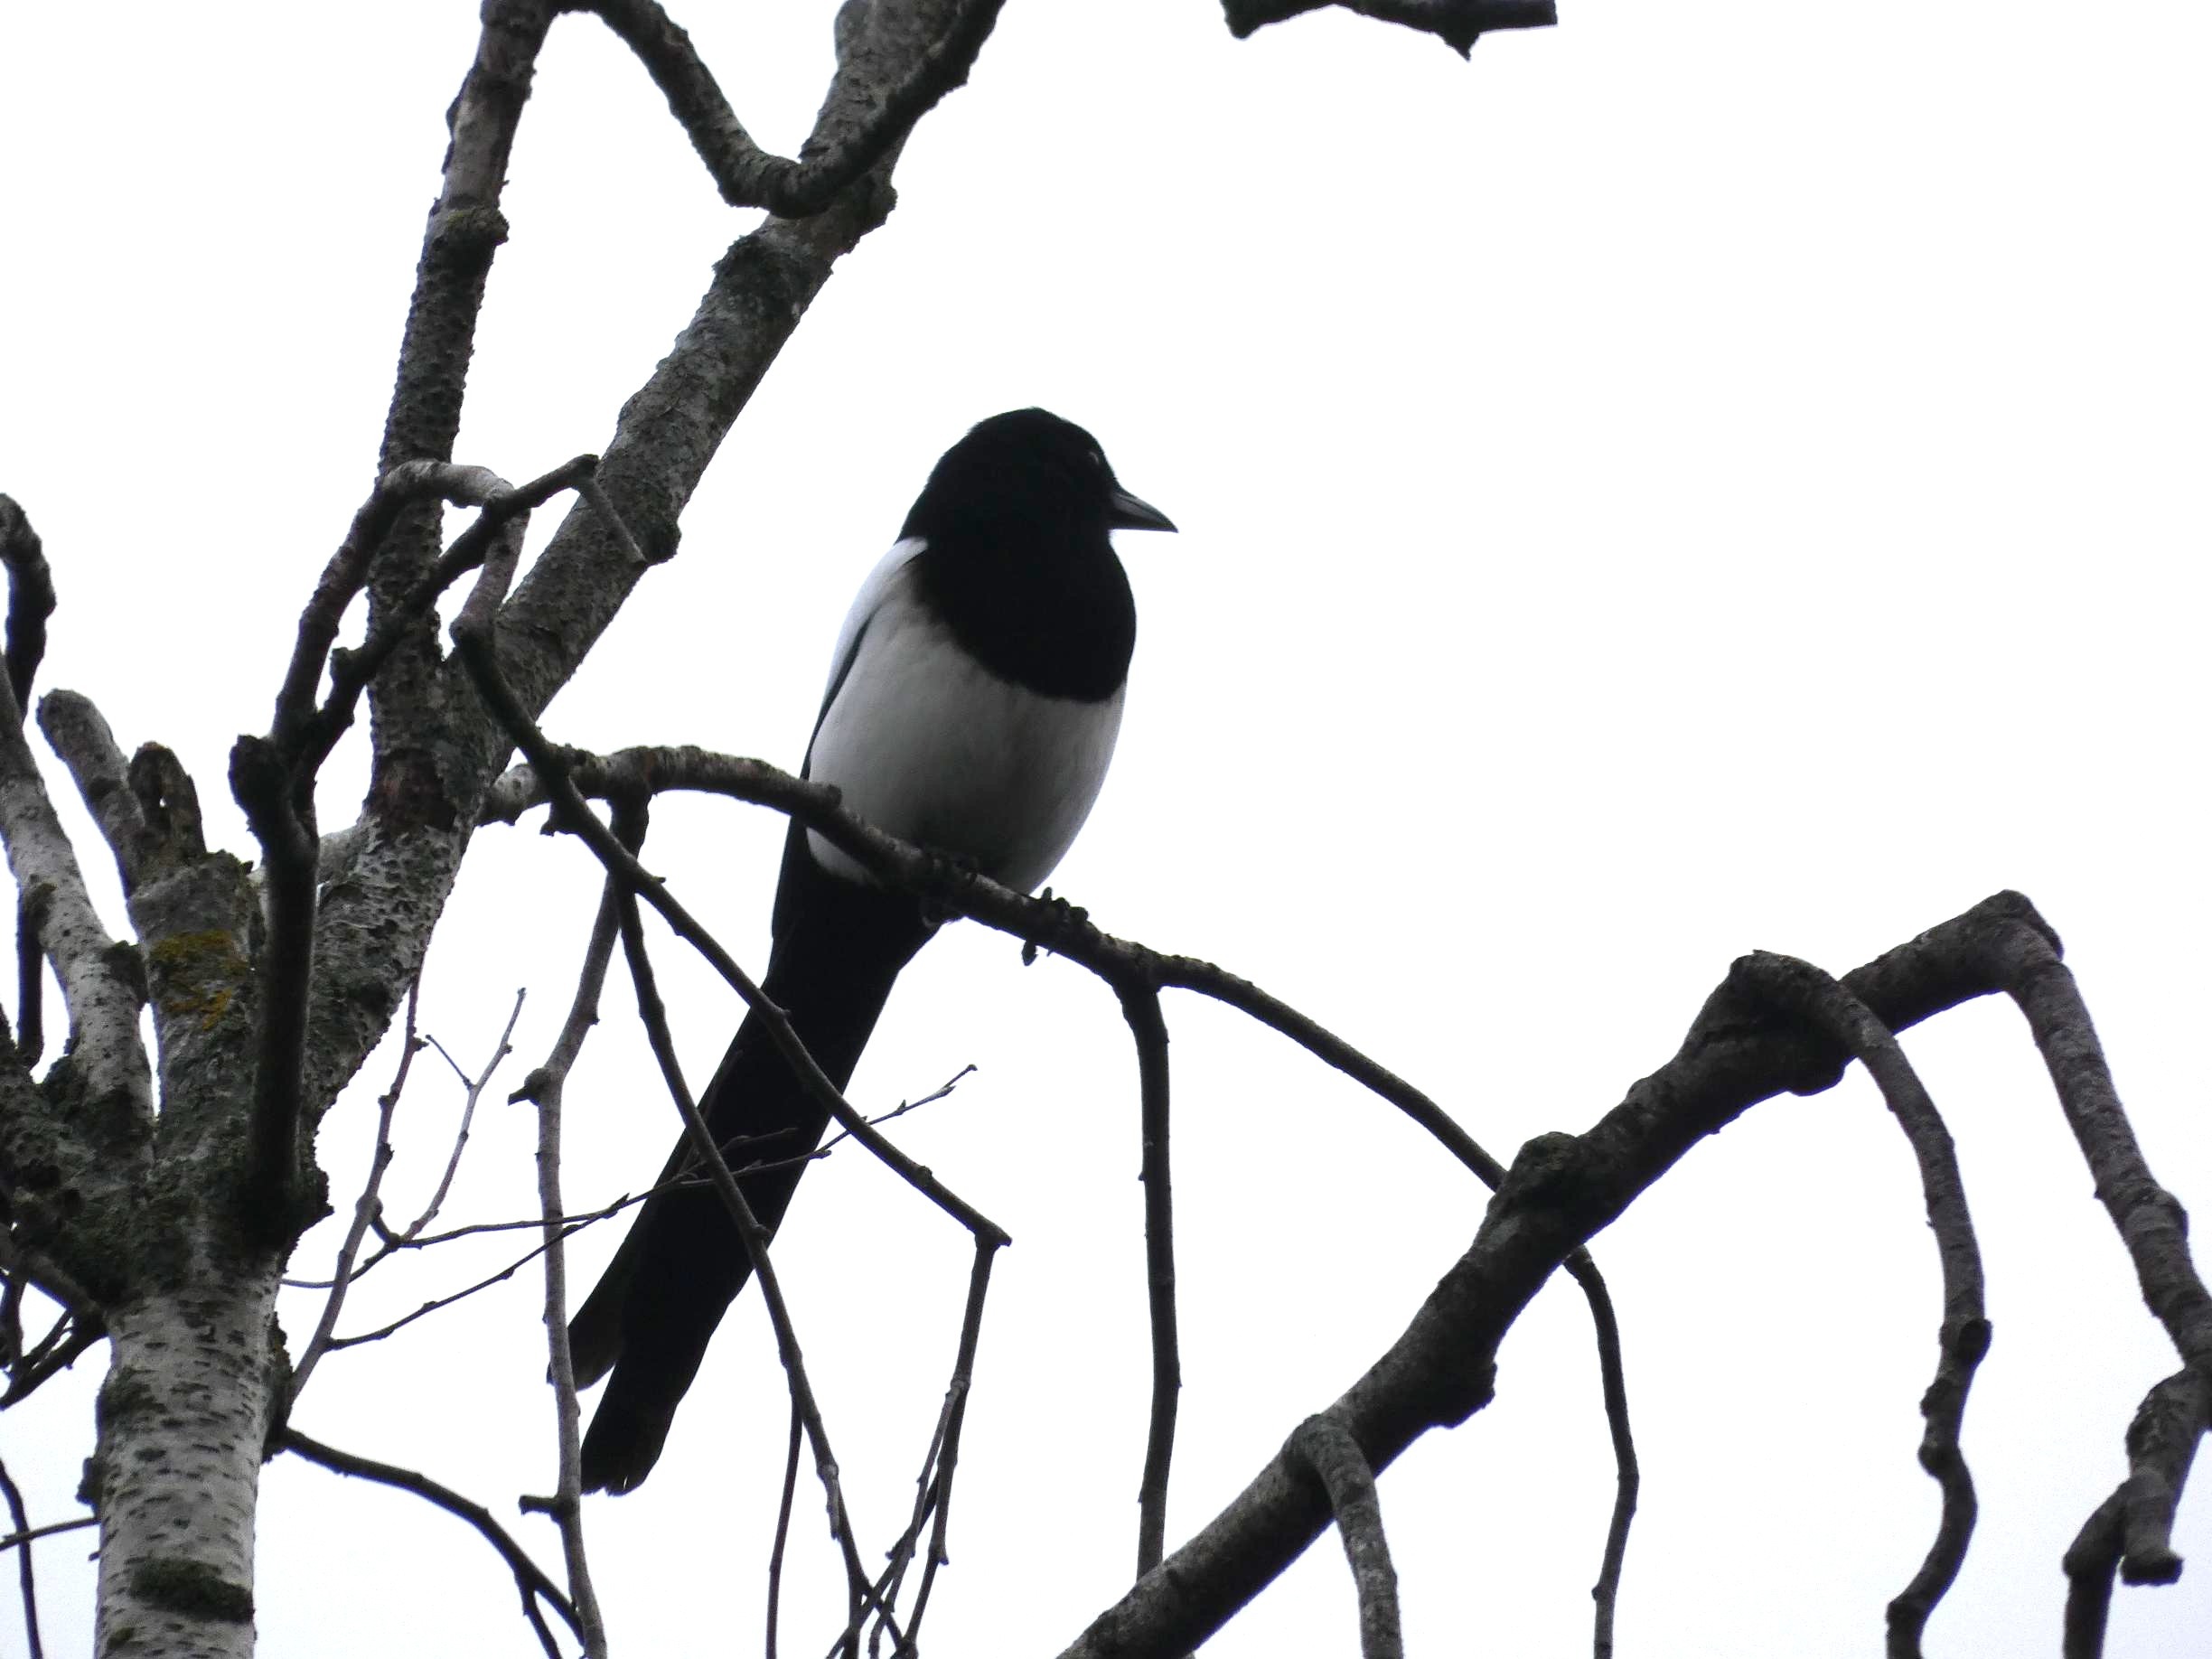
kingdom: Animalia
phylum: Chordata
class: Aves
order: Passeriformes
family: Corvidae
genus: Pica
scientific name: Pica pica
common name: Husskade
